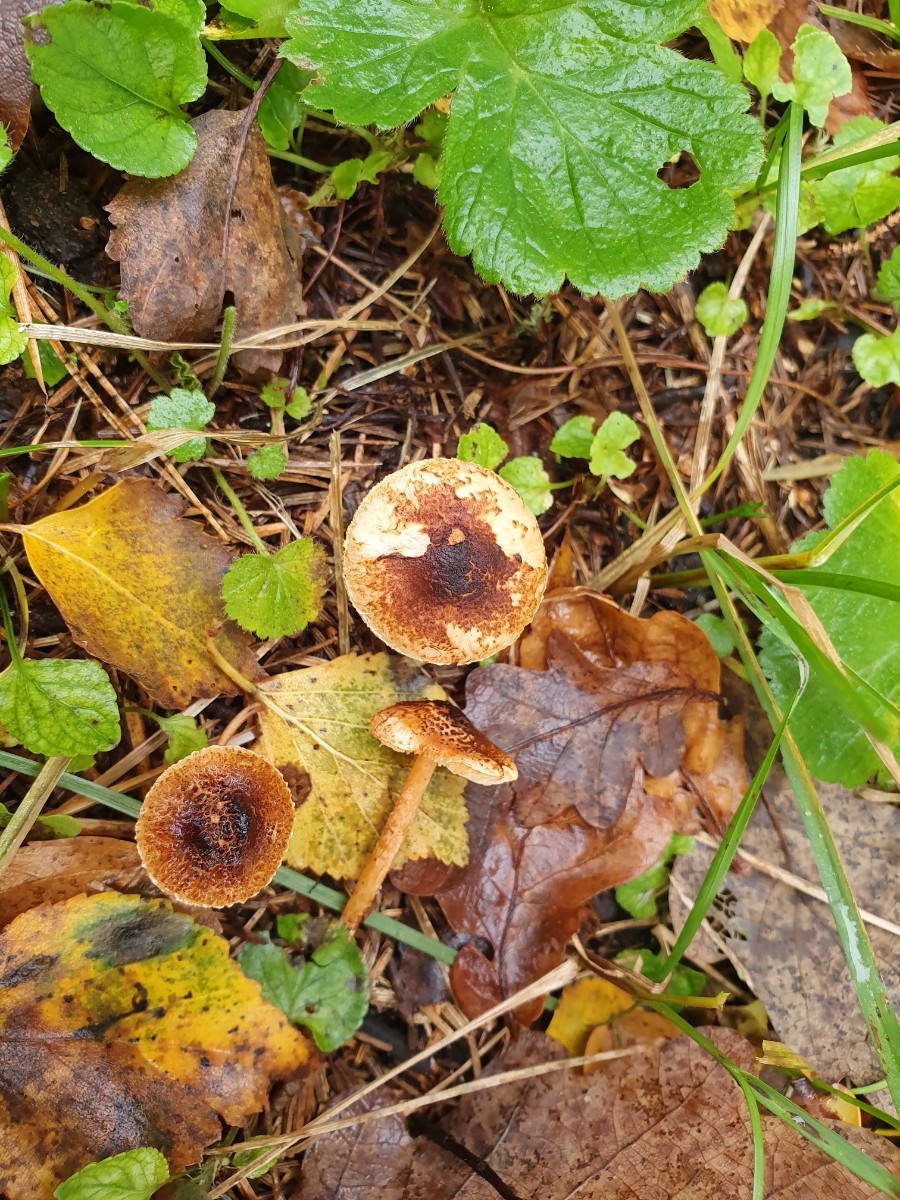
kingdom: Fungi
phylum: Basidiomycota
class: Agaricomycetes
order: Agaricales
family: Agaricaceae
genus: Lepiota
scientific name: Lepiota castanea
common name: kastaniebrun parasolhat
